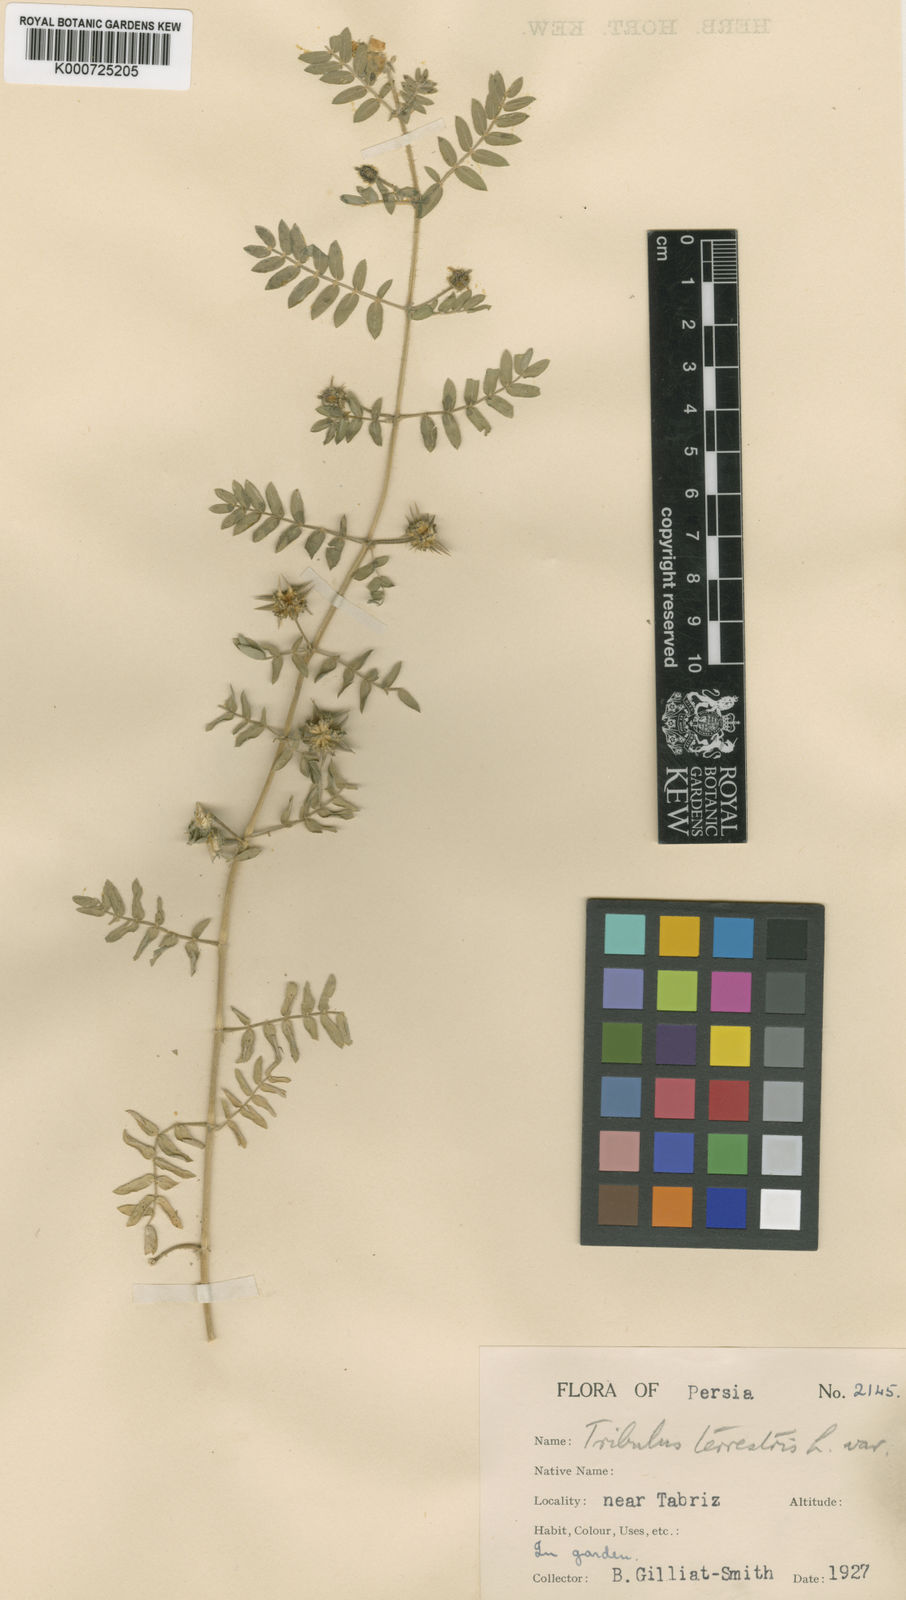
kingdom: Plantae
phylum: Tracheophyta
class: Magnoliopsida
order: Zygophyllales
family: Zygophyllaceae
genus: Tribulus
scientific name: Tribulus terrestris
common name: Puncturevine
